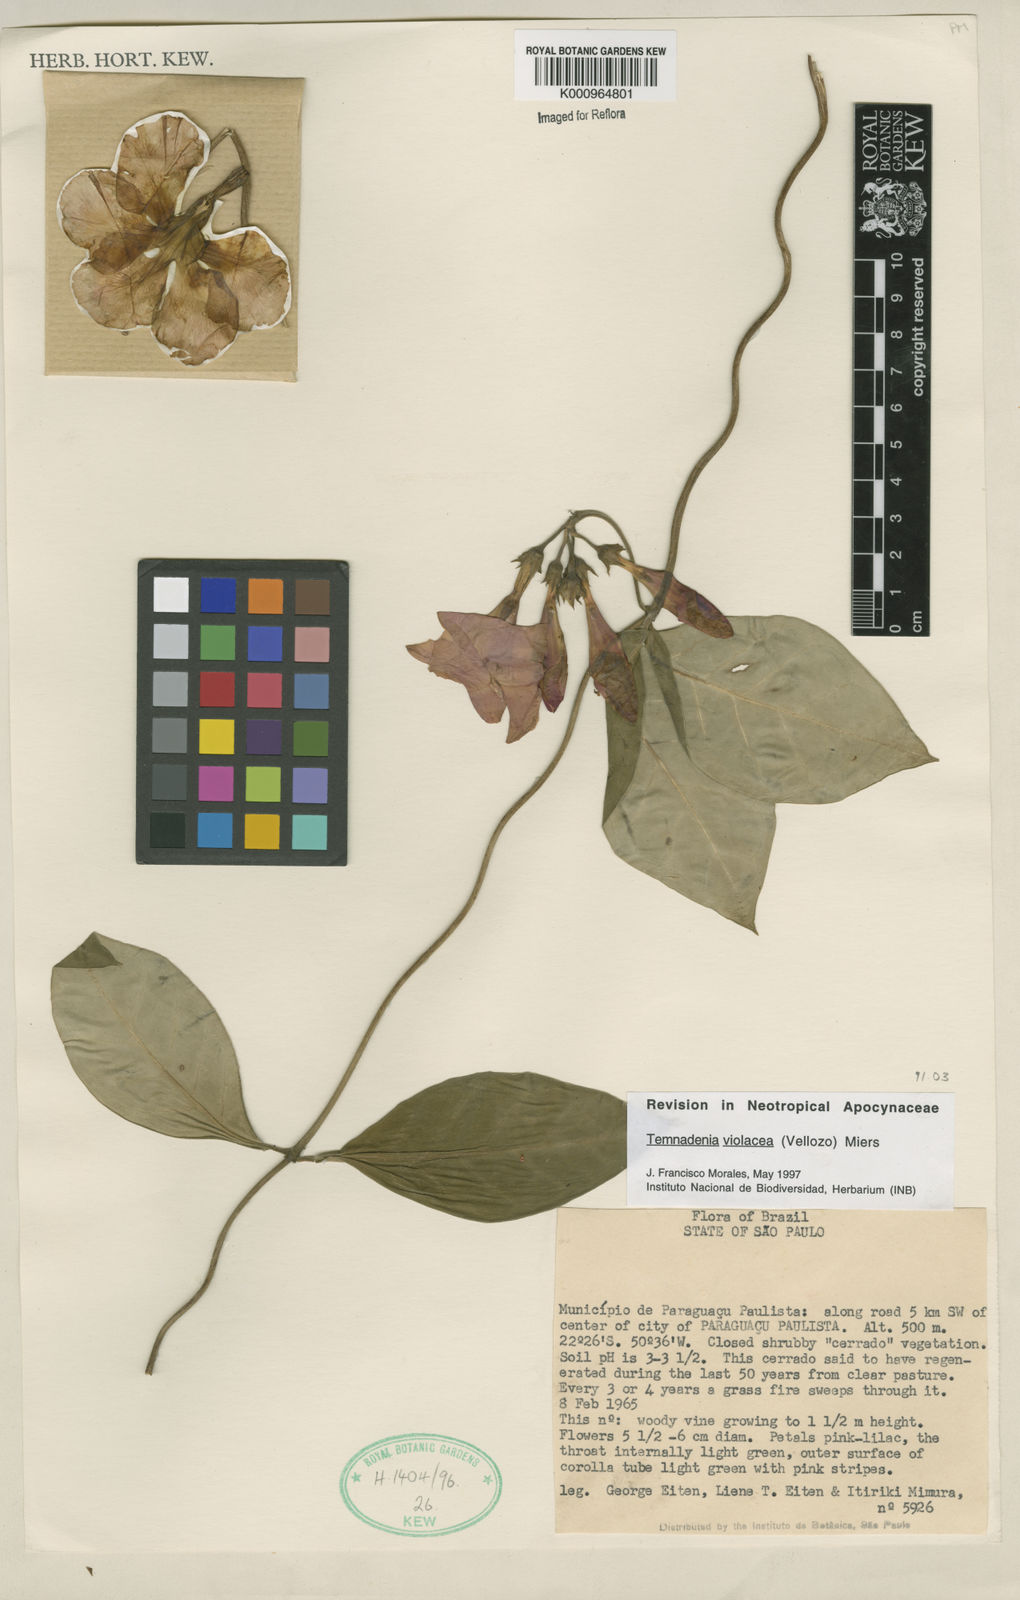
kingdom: Plantae
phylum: Tracheophyta
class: Magnoliopsida
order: Gentianales
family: Apocynaceae
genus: Temnadenia
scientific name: Temnadenia violacea
